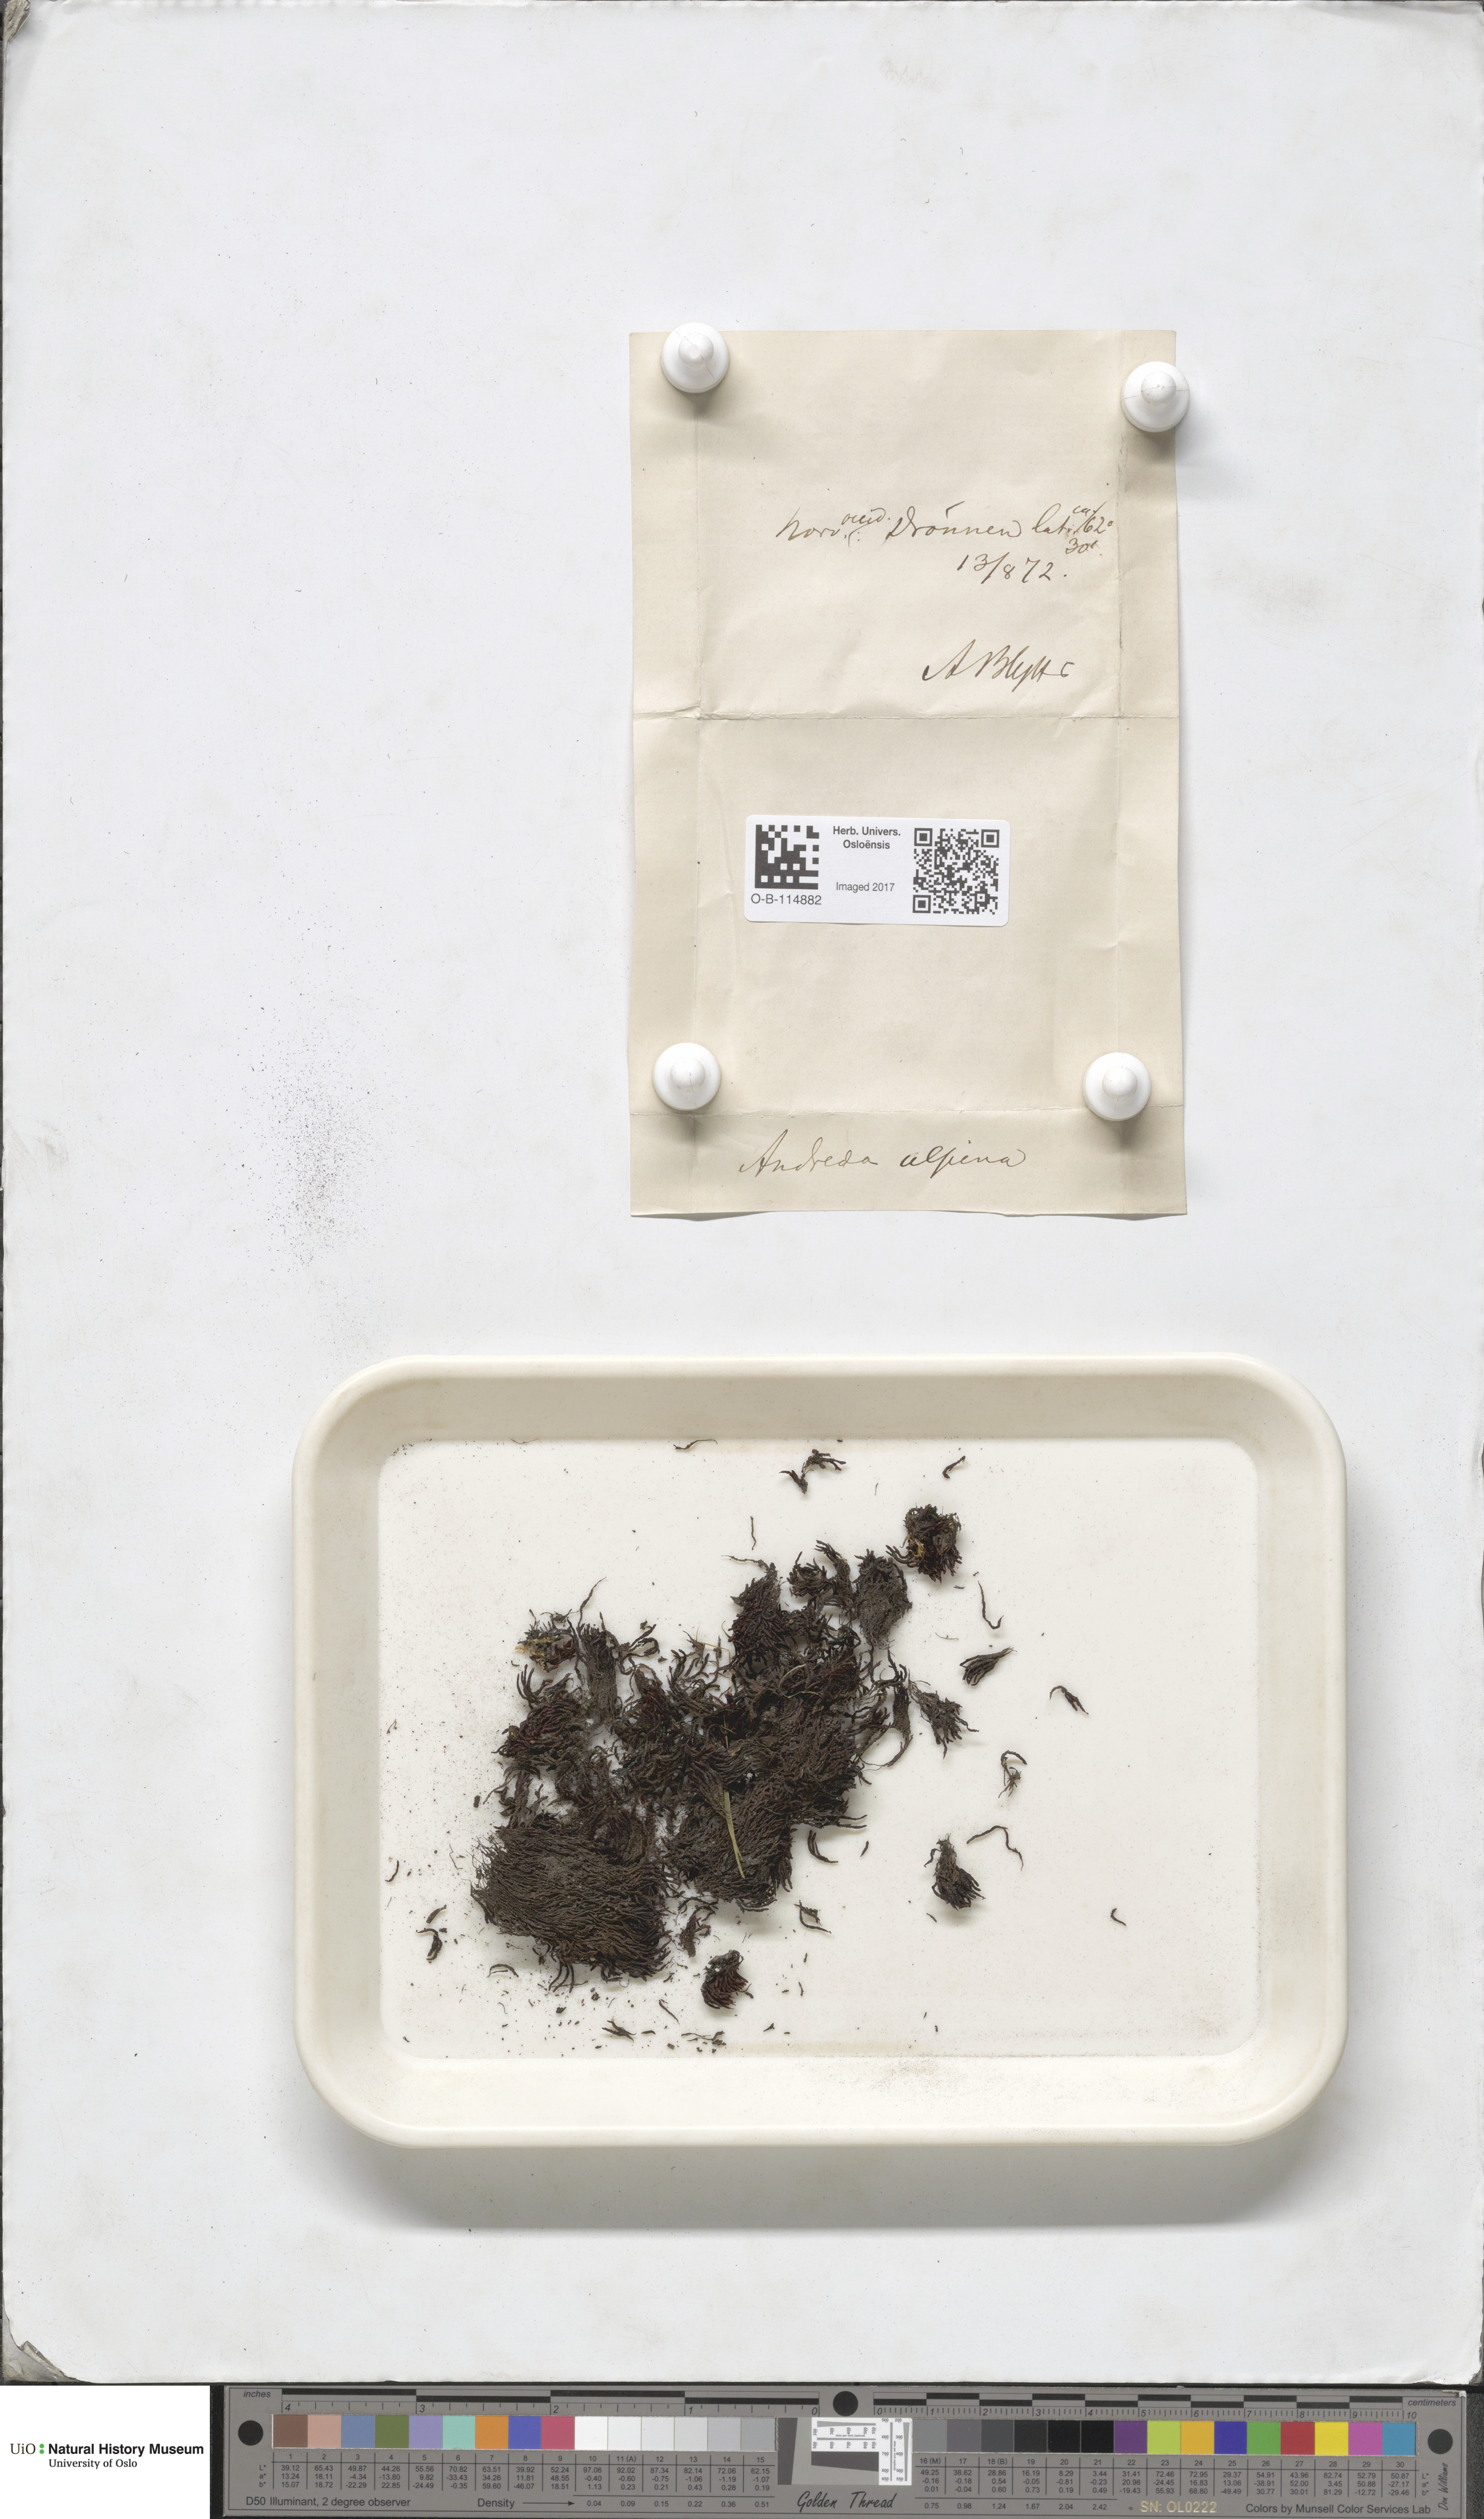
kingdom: Plantae
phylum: Bryophyta
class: Andreaeopsida
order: Andreaeales
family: Andreaeaceae
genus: Andreaea
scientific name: Andreaea hookeri
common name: Alpine rock-moss
